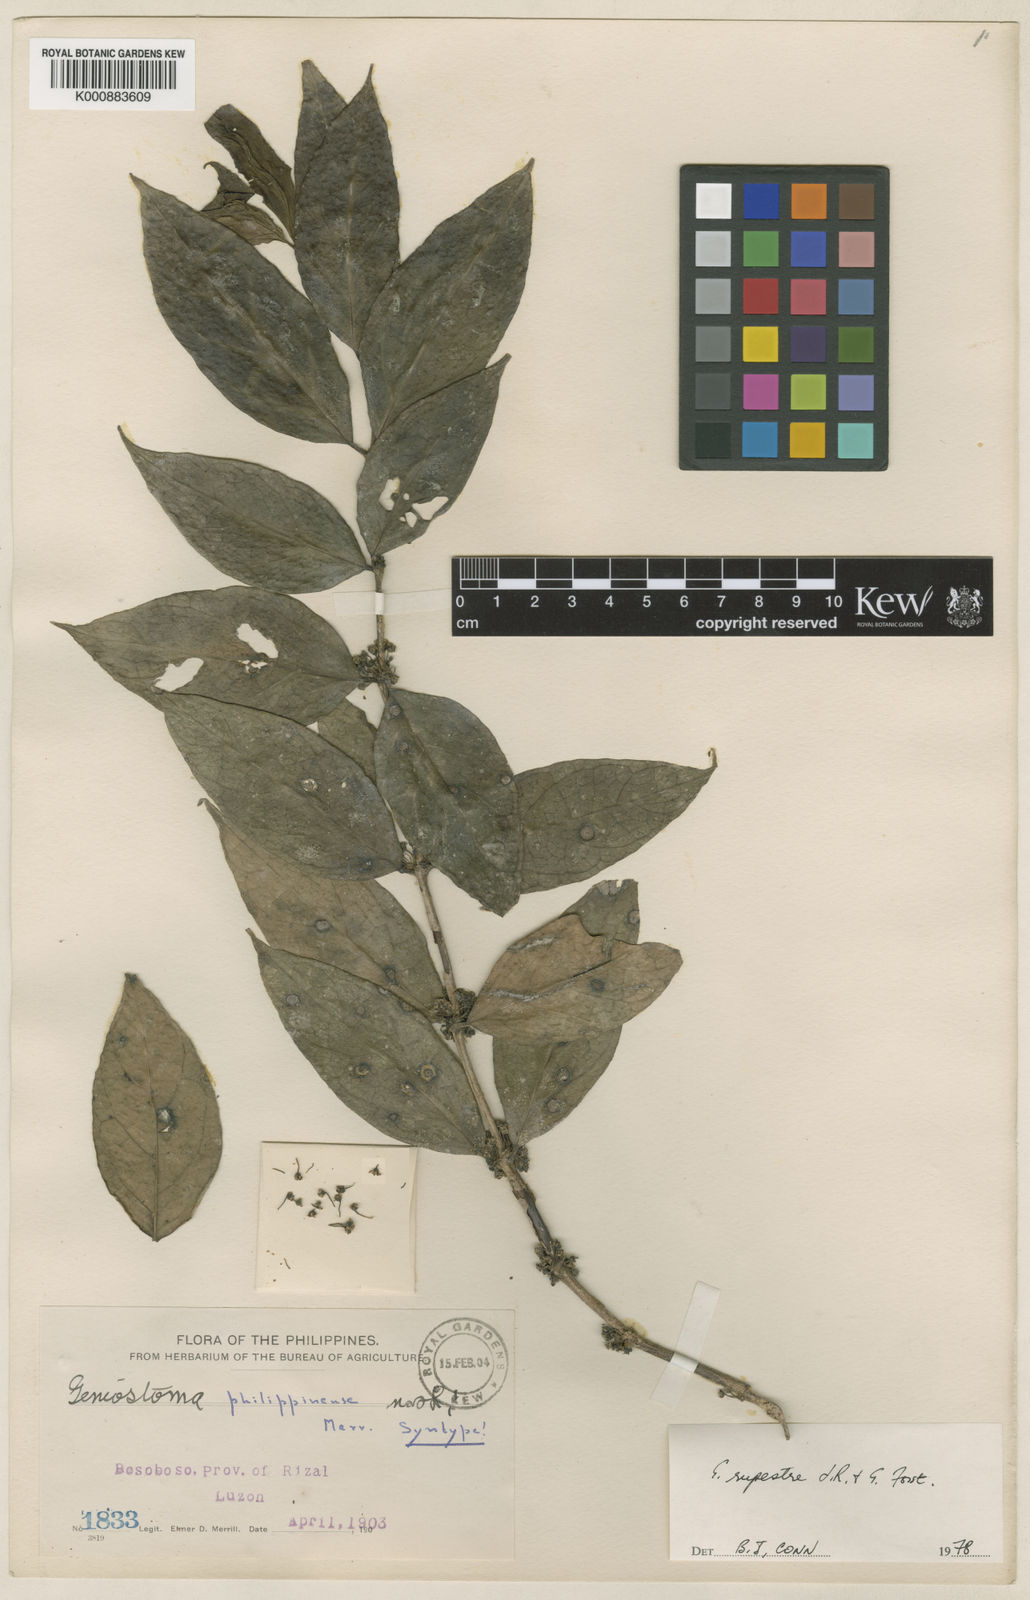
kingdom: Plantae
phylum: Tracheophyta
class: Magnoliopsida
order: Gentianales
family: Loganiaceae
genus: Geniostoma
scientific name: Geniostoma rupestre
